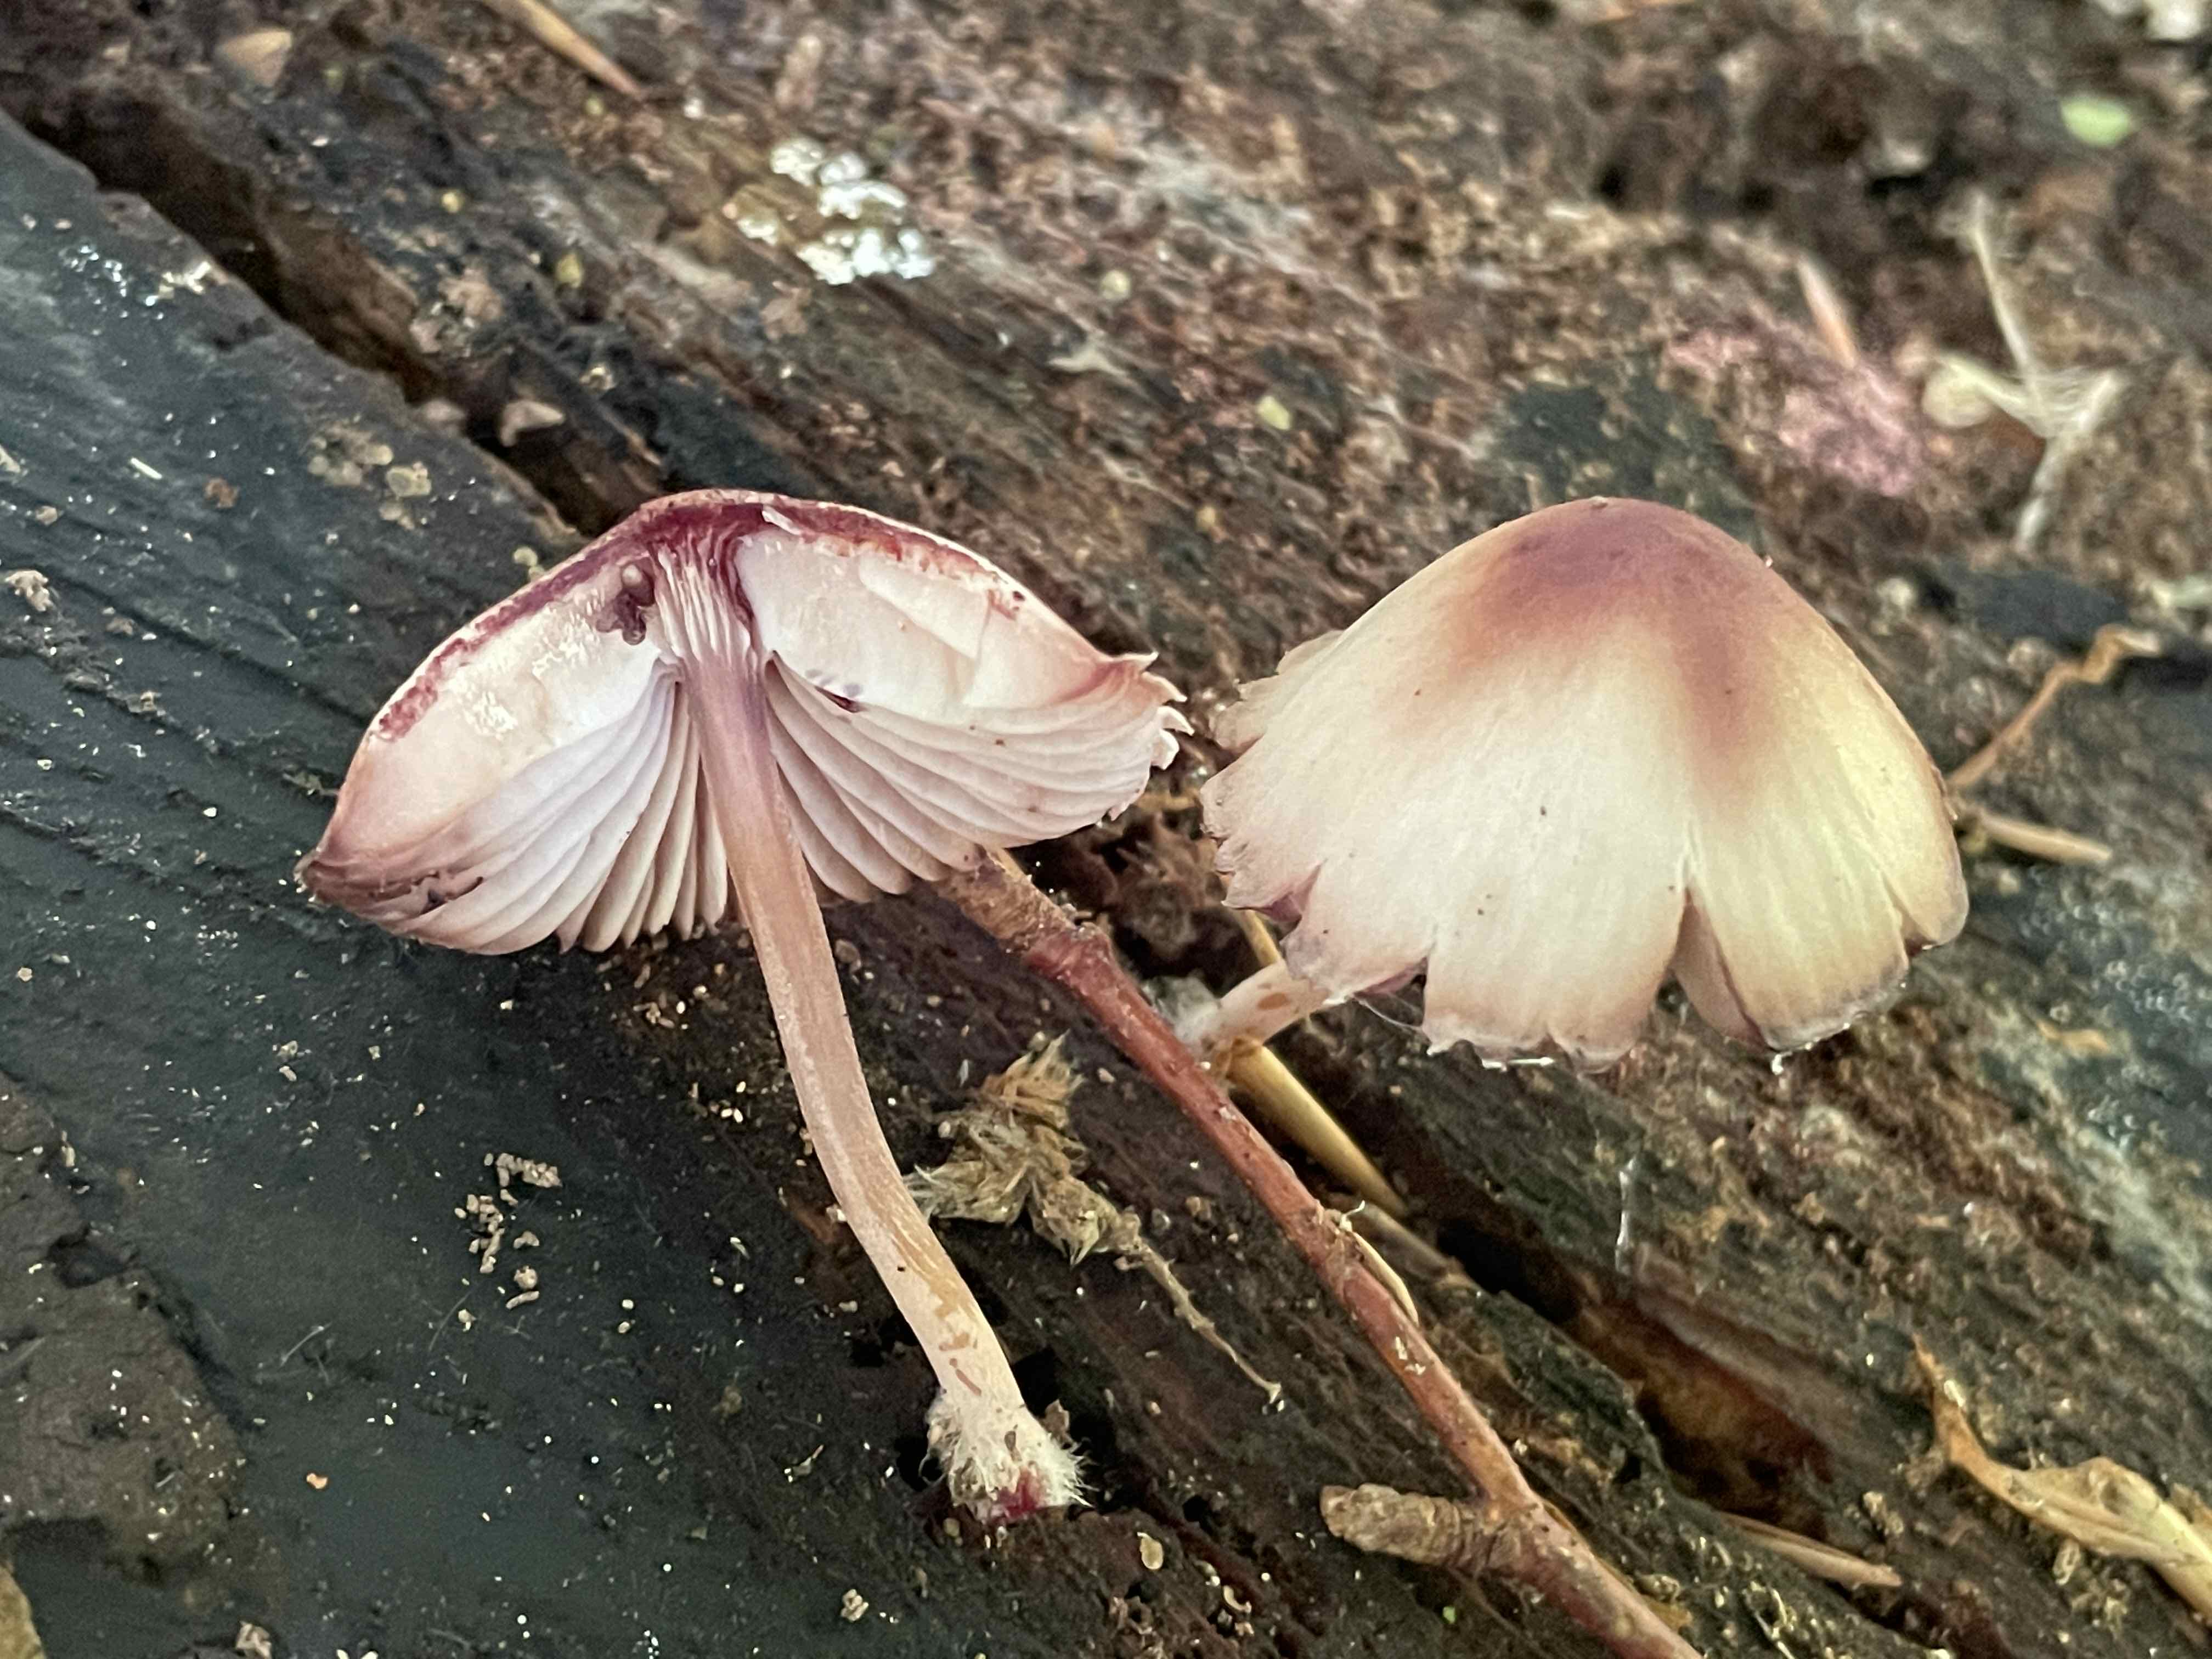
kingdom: Fungi
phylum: Basidiomycota
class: Agaricomycetes
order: Agaricales
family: Mycenaceae
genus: Mycena
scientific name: Mycena haematopus
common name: blødende huesvamp
